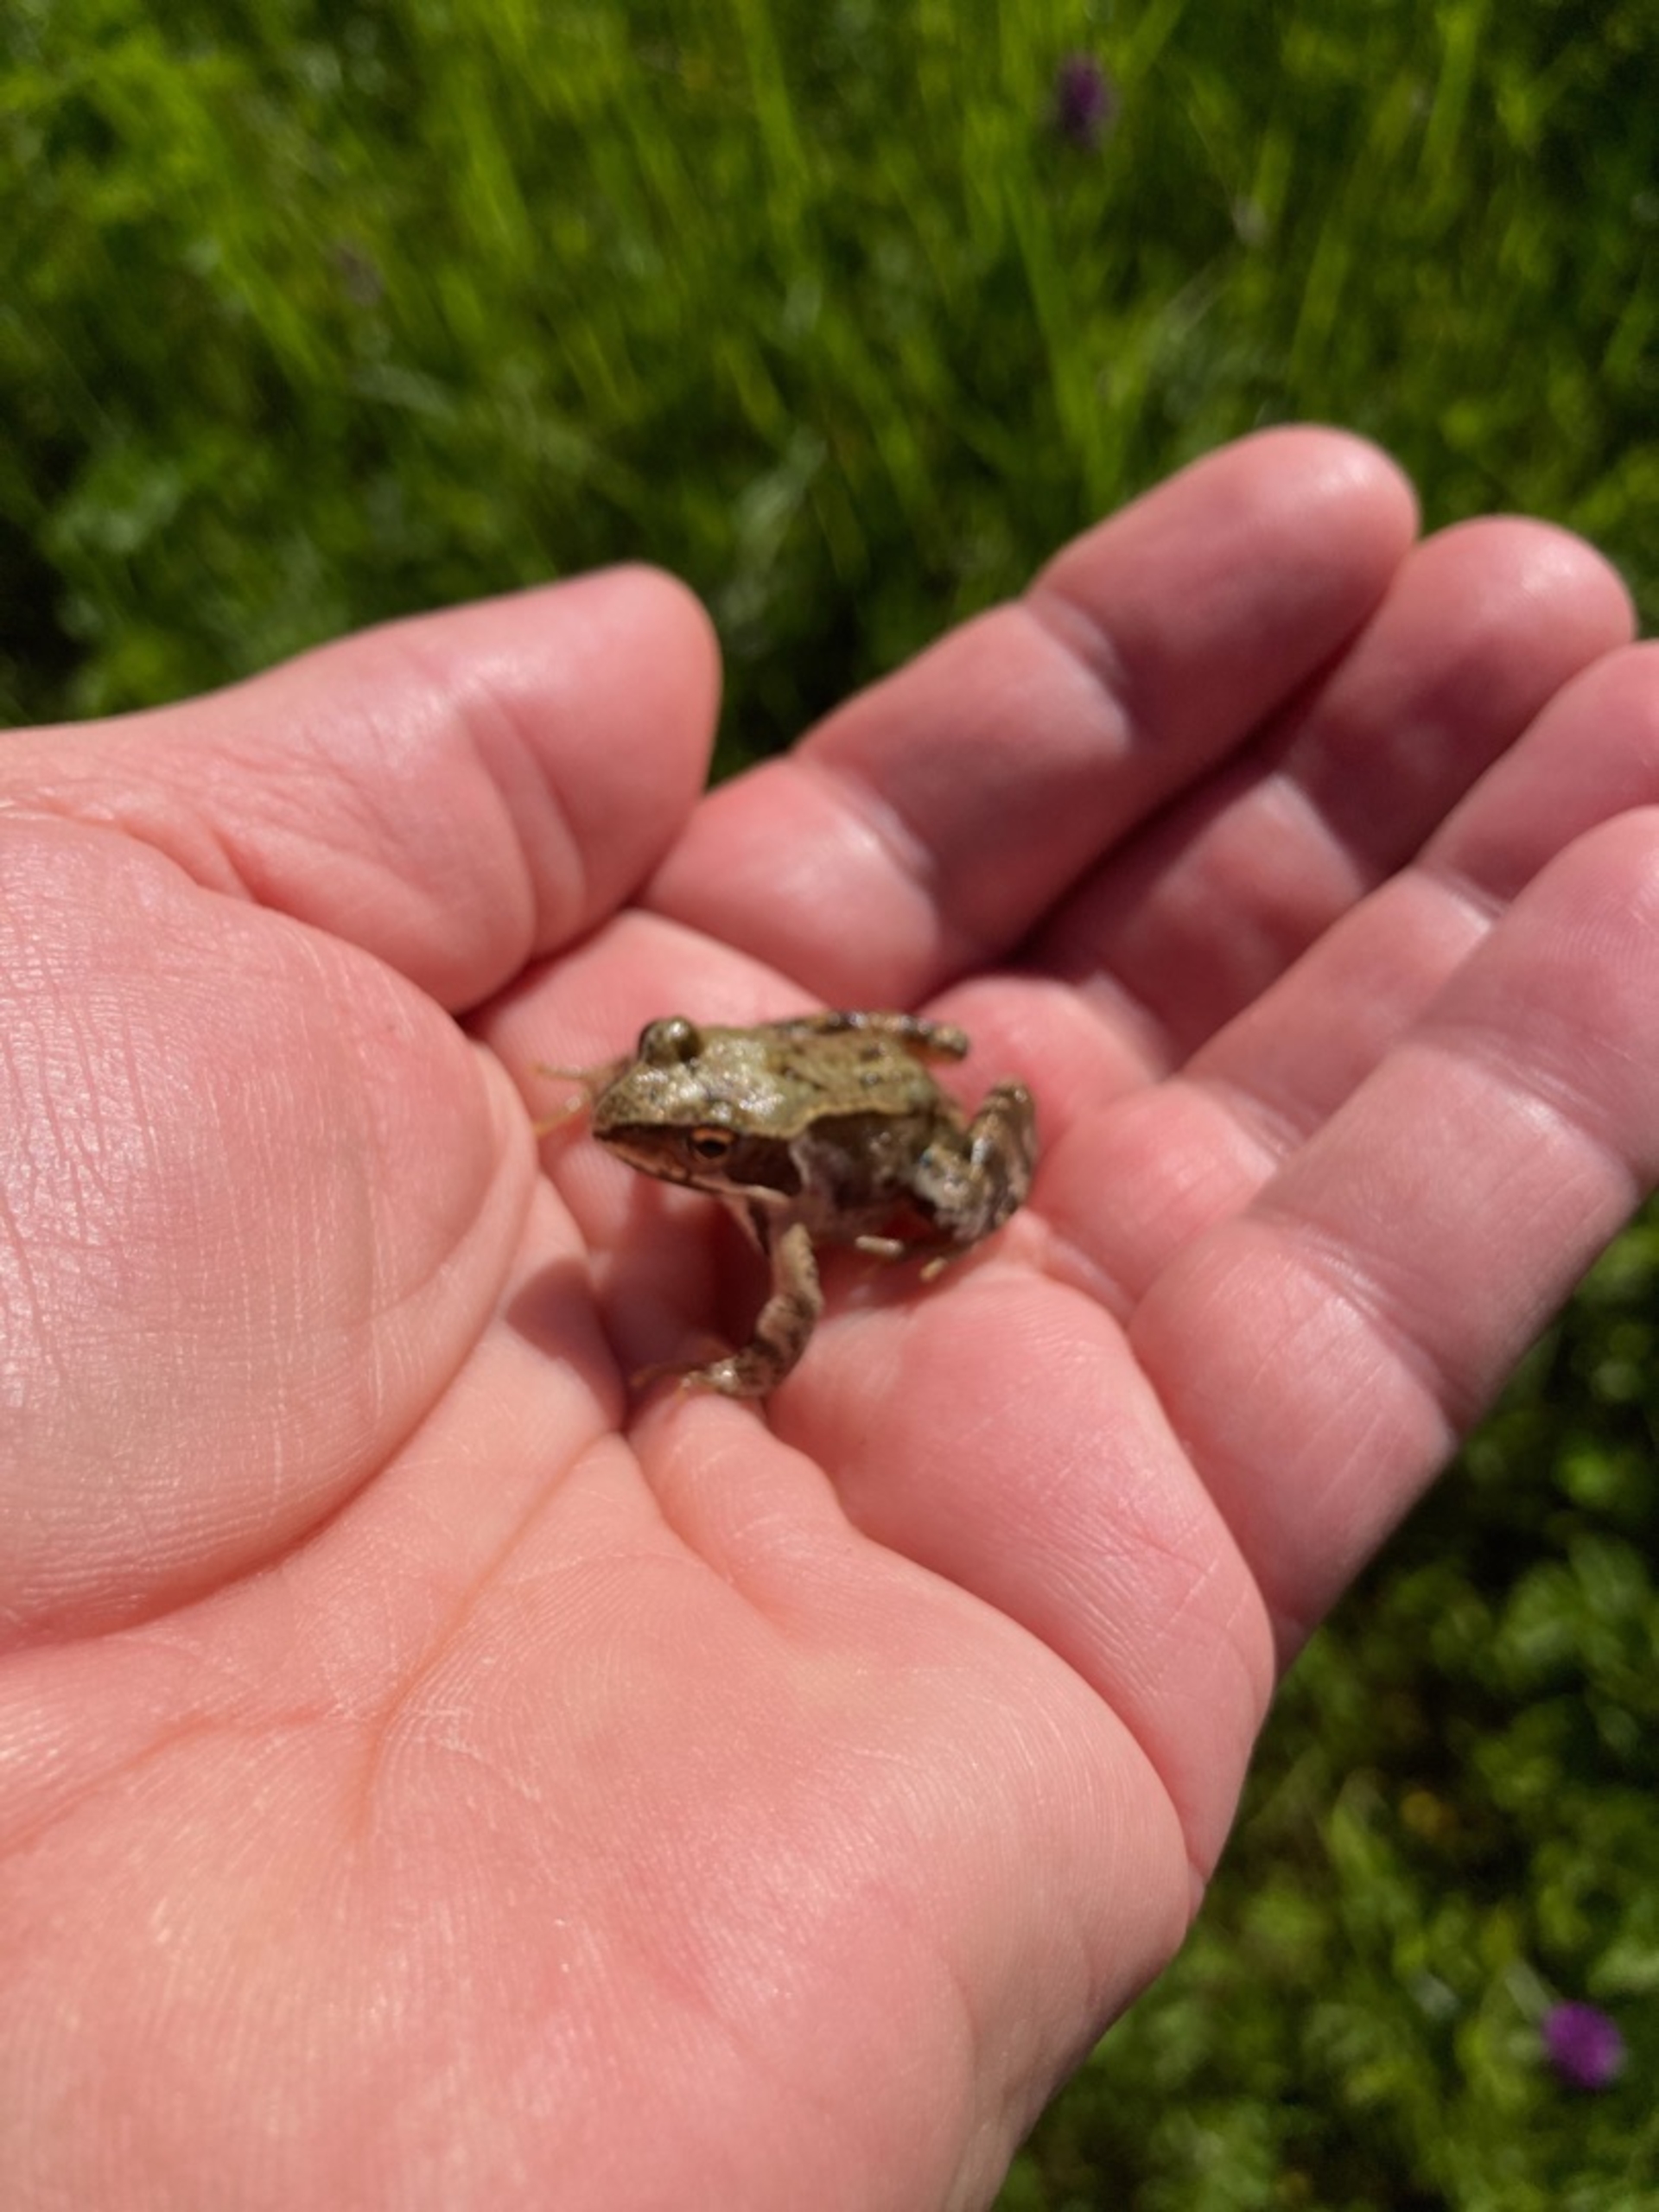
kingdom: Animalia
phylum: Chordata
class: Amphibia
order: Anura
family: Ranidae
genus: Rana
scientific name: Rana temporaria
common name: Butsnudet frø
